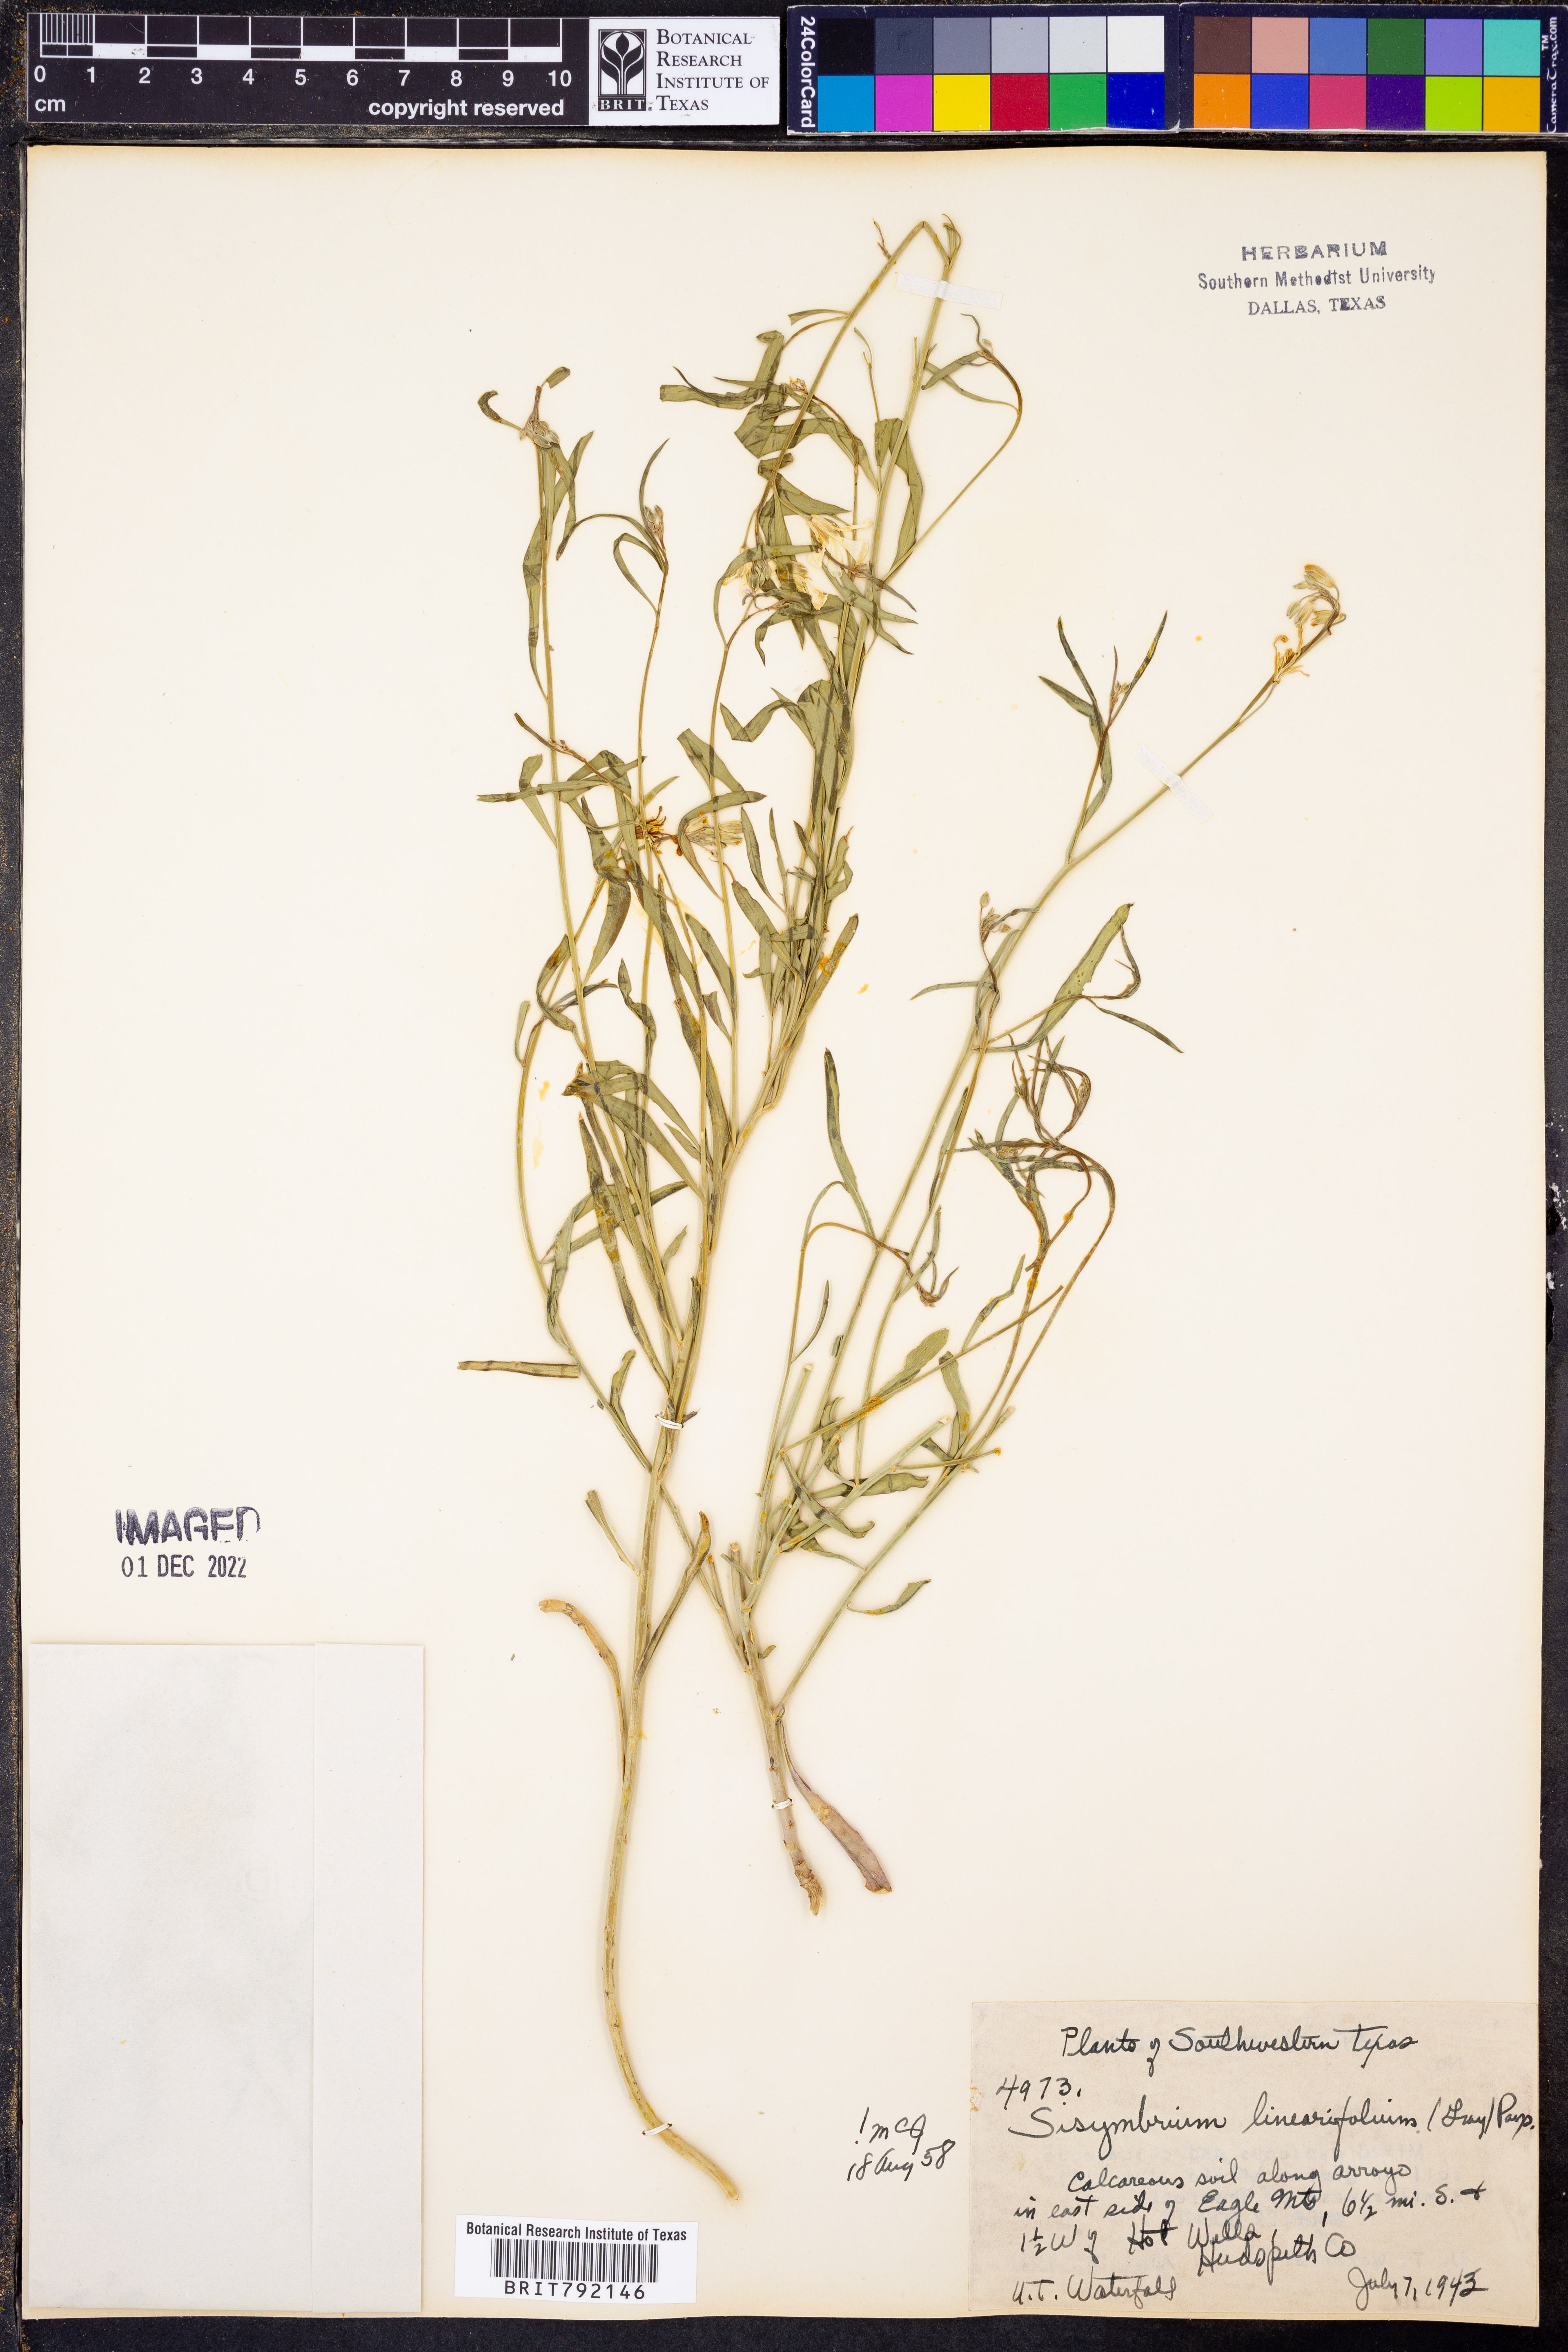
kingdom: Plantae
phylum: Tracheophyta
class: Magnoliopsida
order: Brassicales
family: Brassicaceae
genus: Hesperidanthus
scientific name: Hesperidanthus linearifolius
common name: Slim-leaf plains mustard
